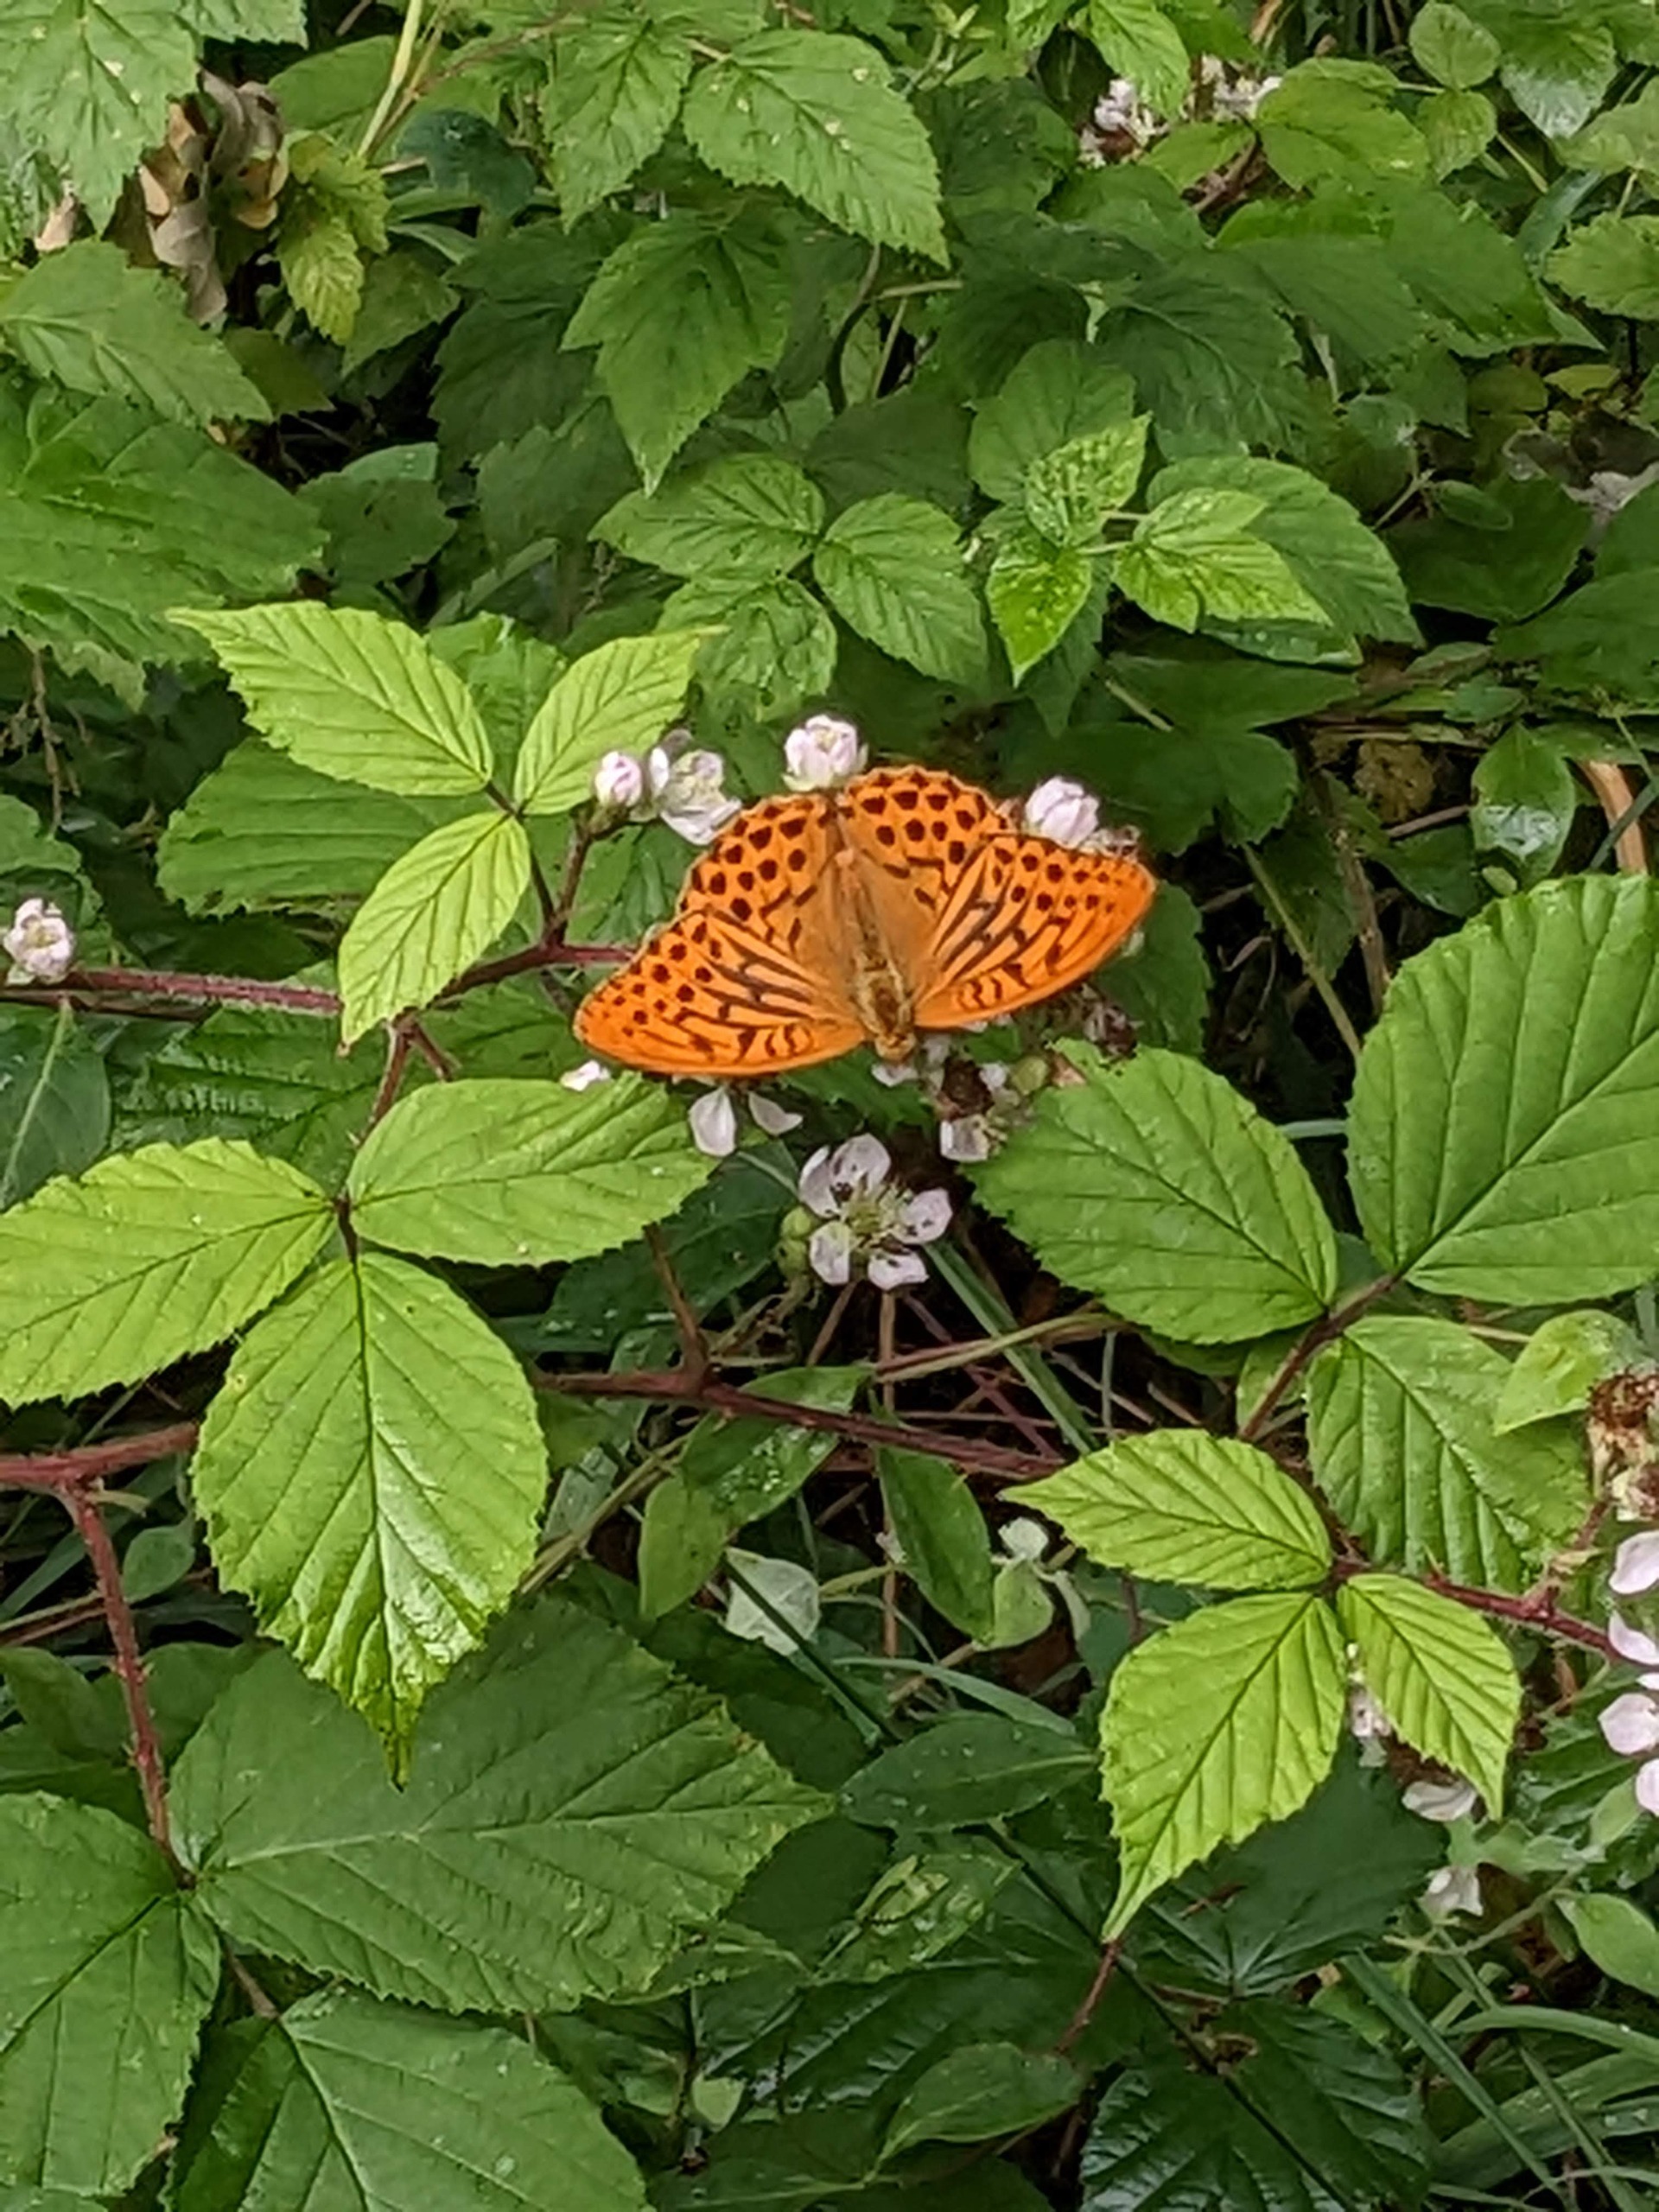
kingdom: Animalia
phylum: Arthropoda
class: Insecta
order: Lepidoptera
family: Nymphalidae
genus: Argynnis
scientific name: Argynnis paphia
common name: Kejserkåbe
